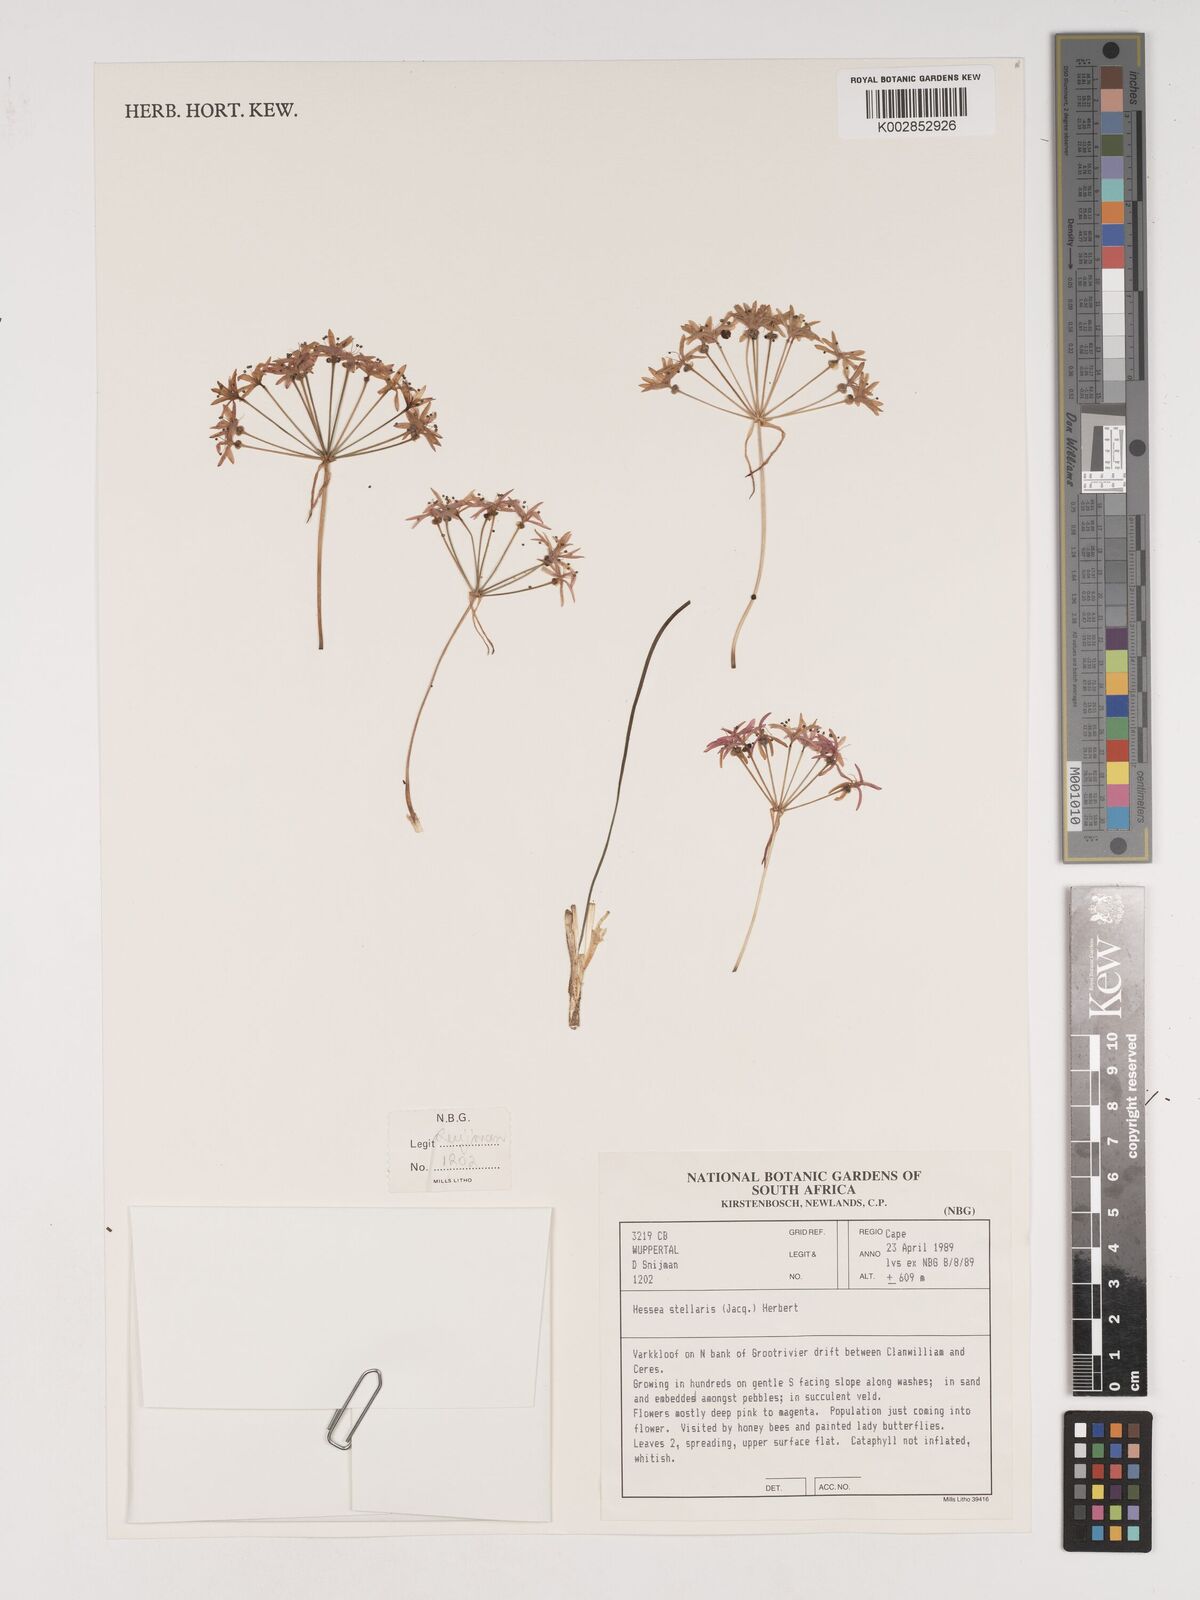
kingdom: Plantae
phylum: Tracheophyta
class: Liliopsida
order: Asparagales
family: Amaryllidaceae
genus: Hessea
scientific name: Hessea stellaris
